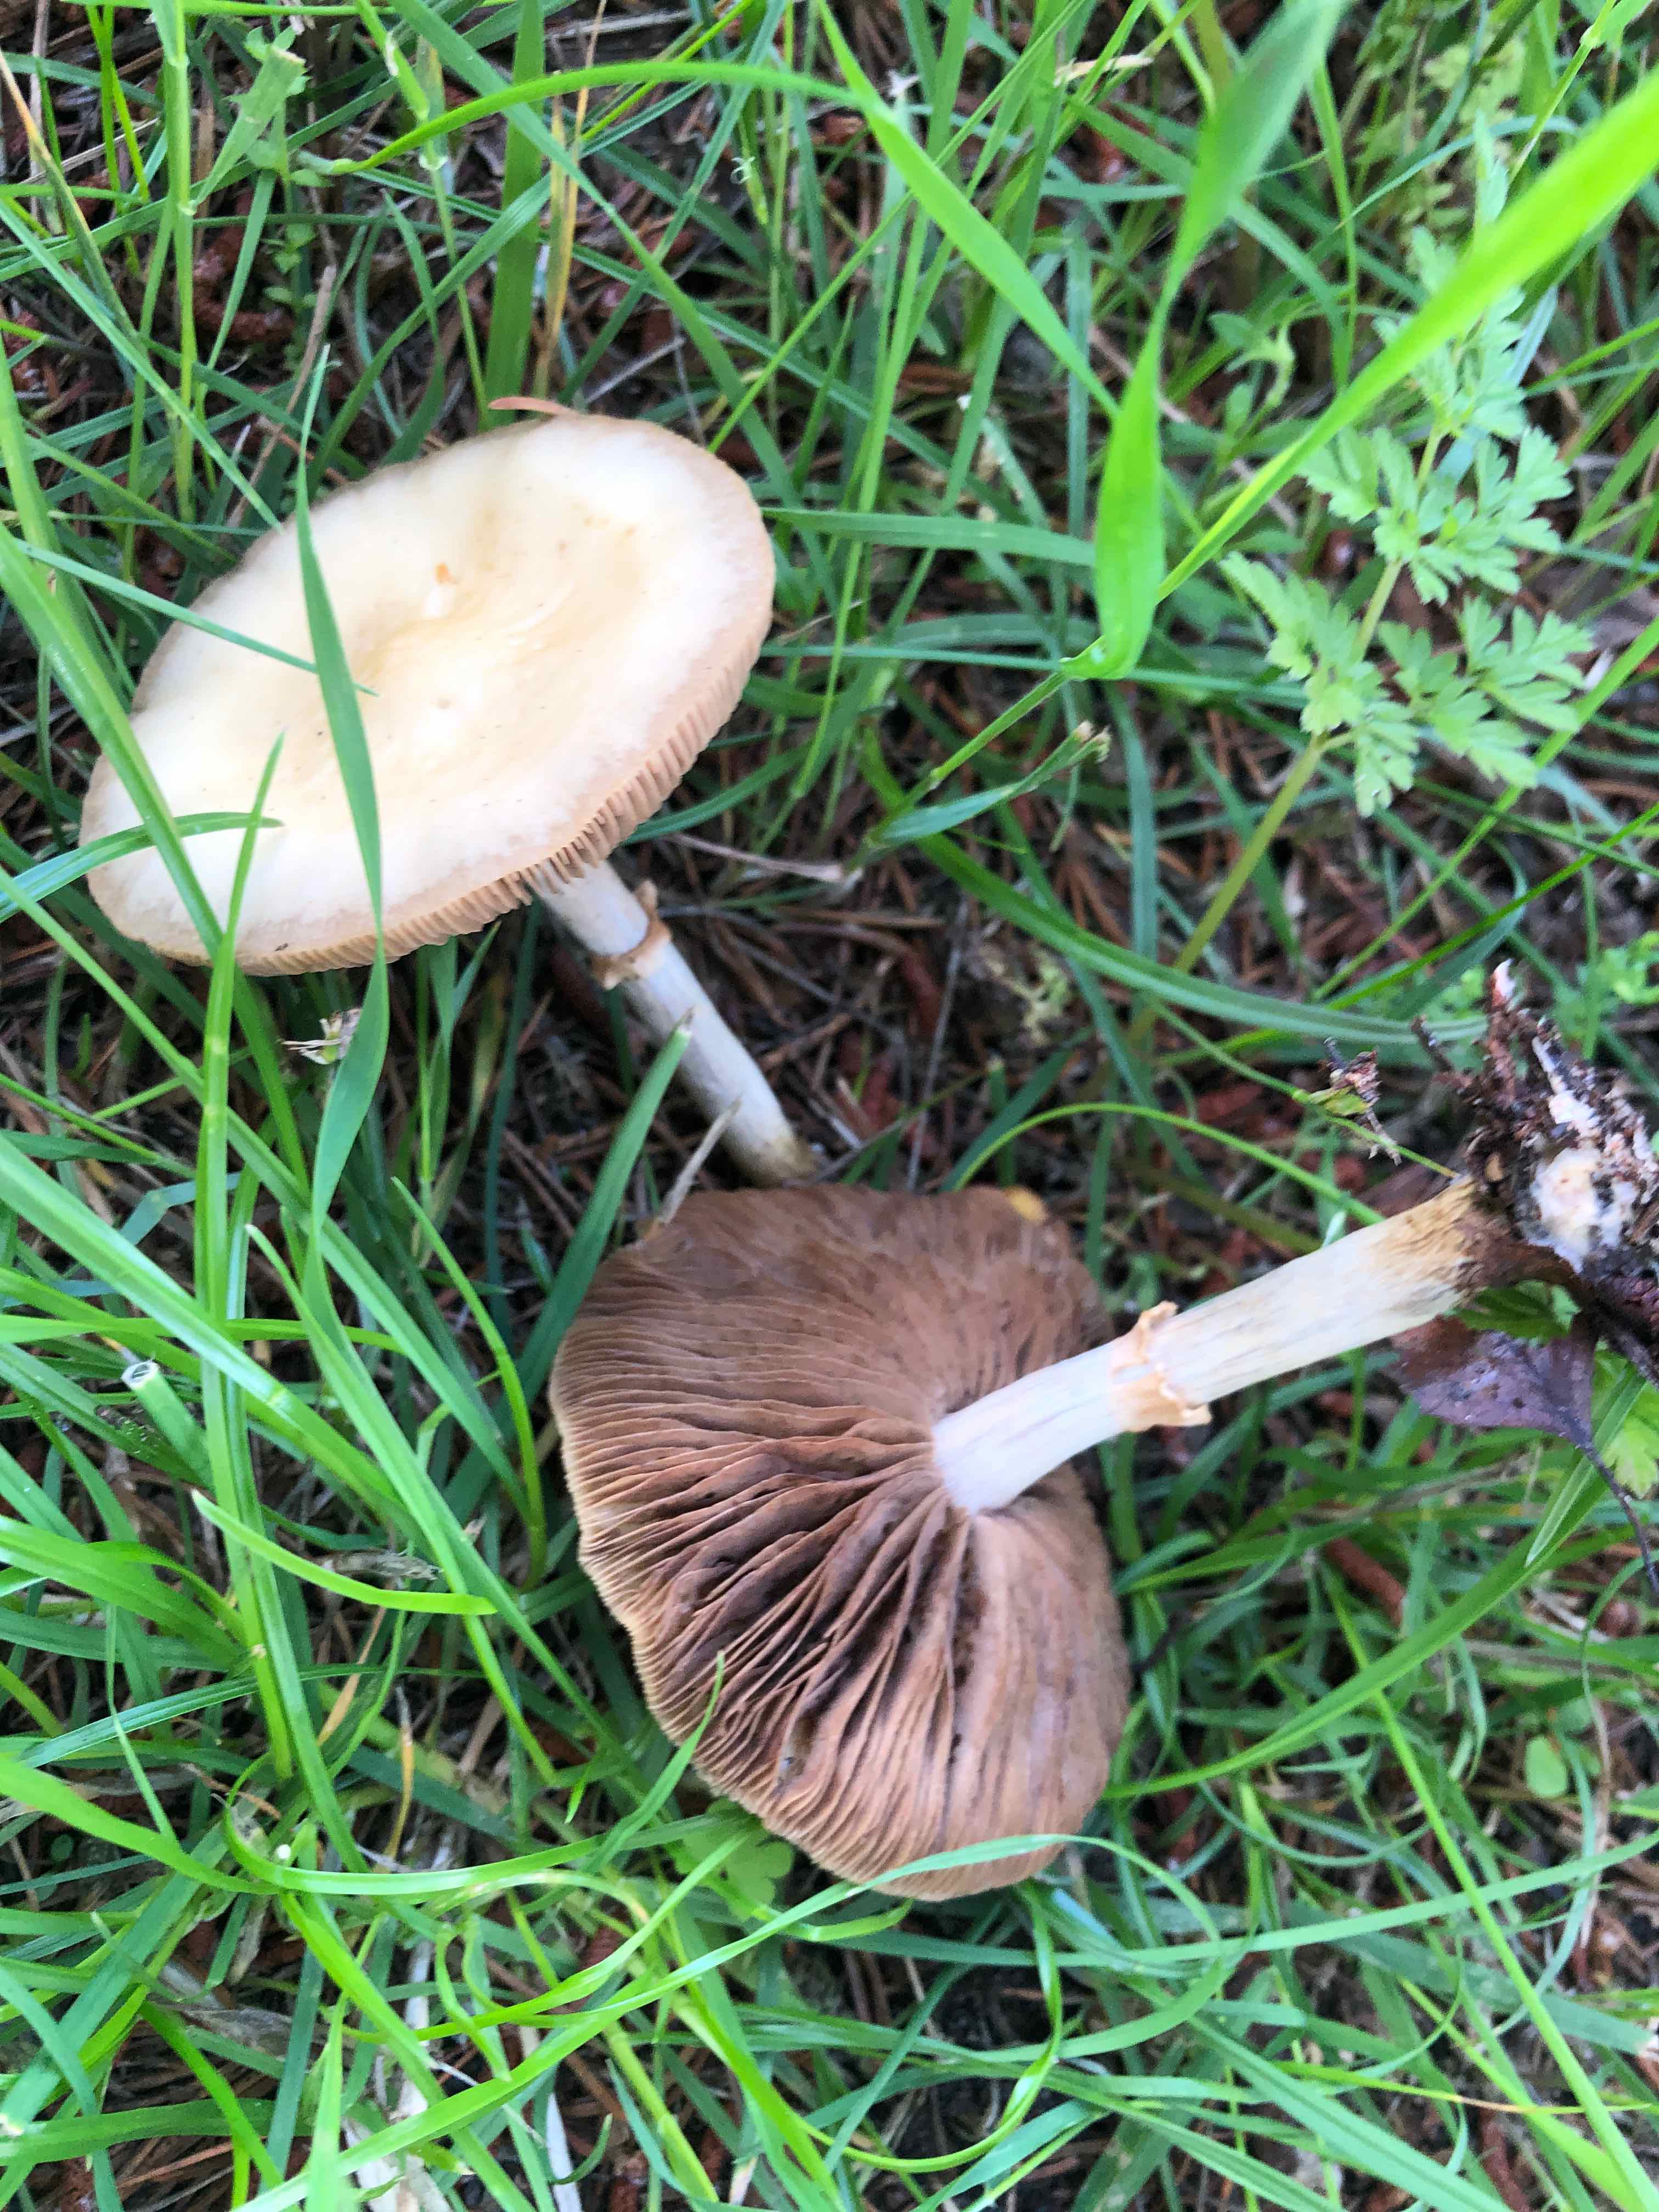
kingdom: Fungi
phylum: Basidiomycota
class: Agaricomycetes
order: Agaricales
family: Strophariaceae
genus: Agrocybe
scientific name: Agrocybe praecox
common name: tidlig agerhat
